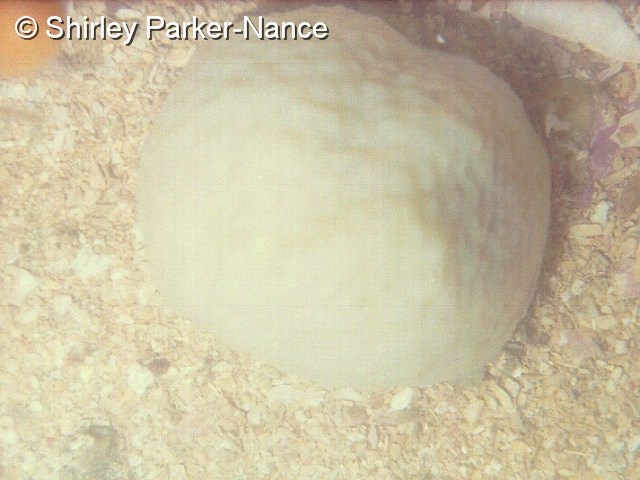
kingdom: Animalia
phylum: Chordata
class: Ascidiacea
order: Aplousobranchia
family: Polycitoridae
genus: Eudistoma
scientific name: Eudistoma
